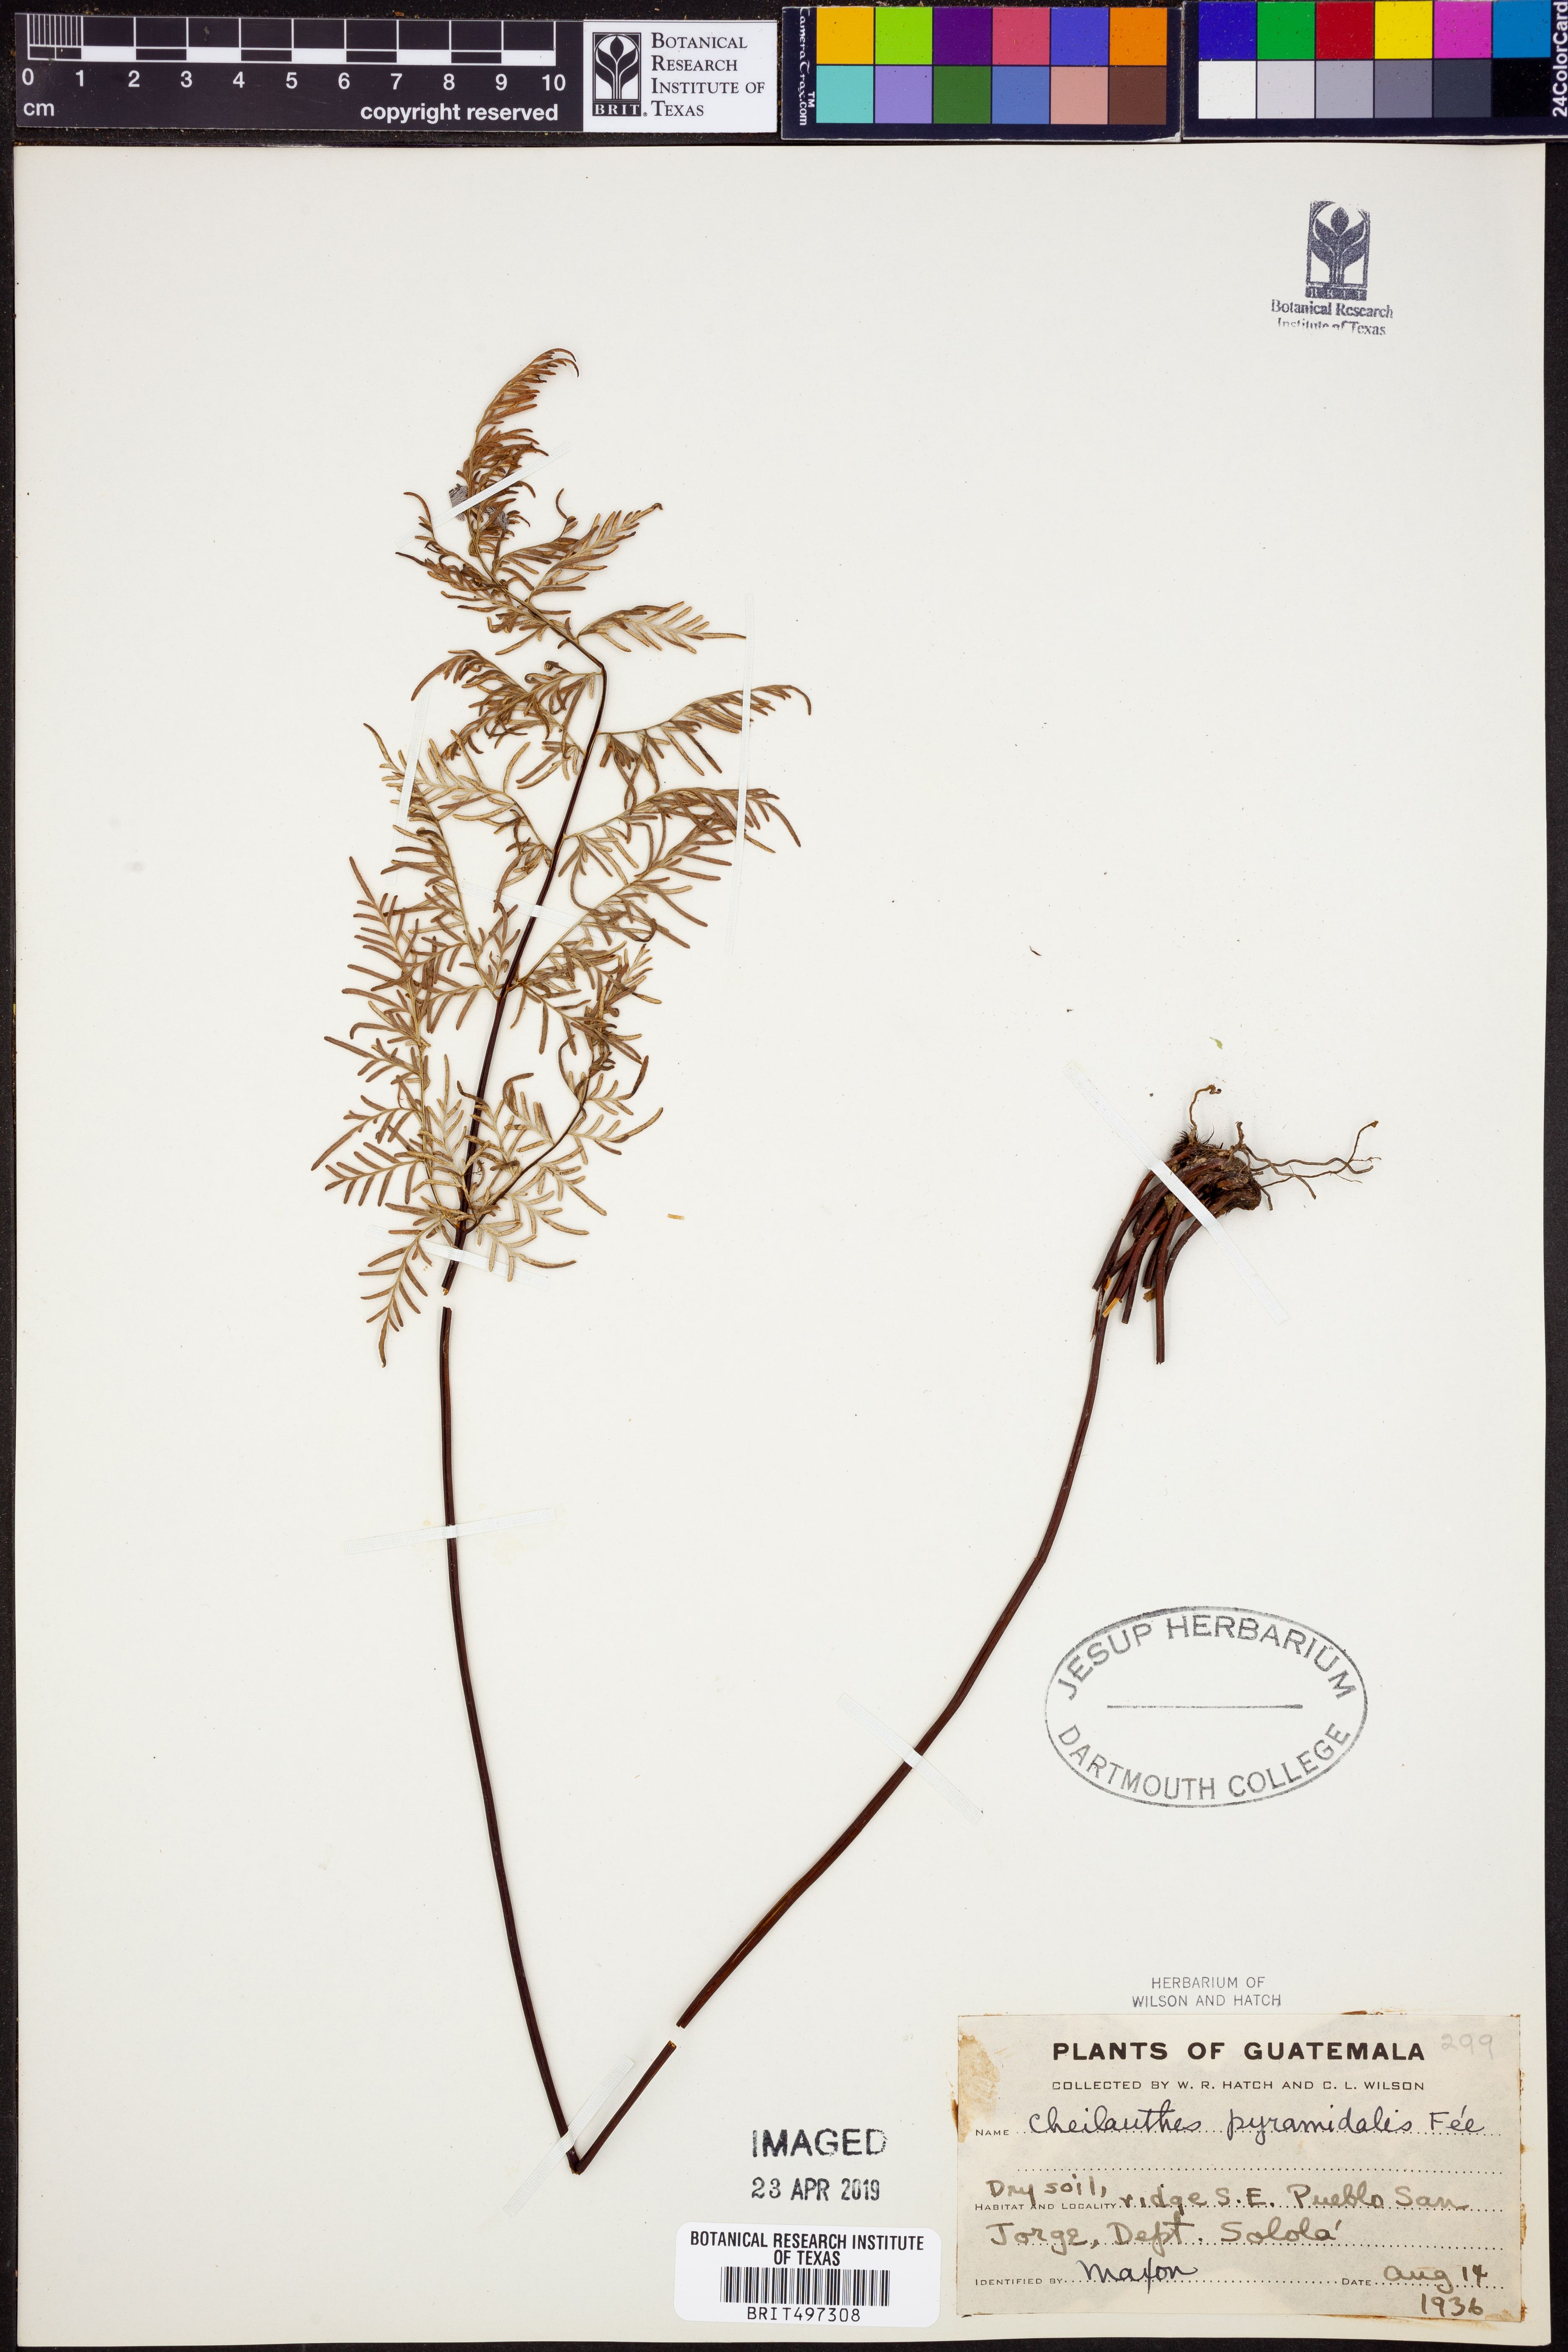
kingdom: Plantae
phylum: Tracheophyta
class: Polypodiopsida
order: Polypodiales
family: Pteridaceae
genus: Gaga
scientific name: Gaga hirsuta
